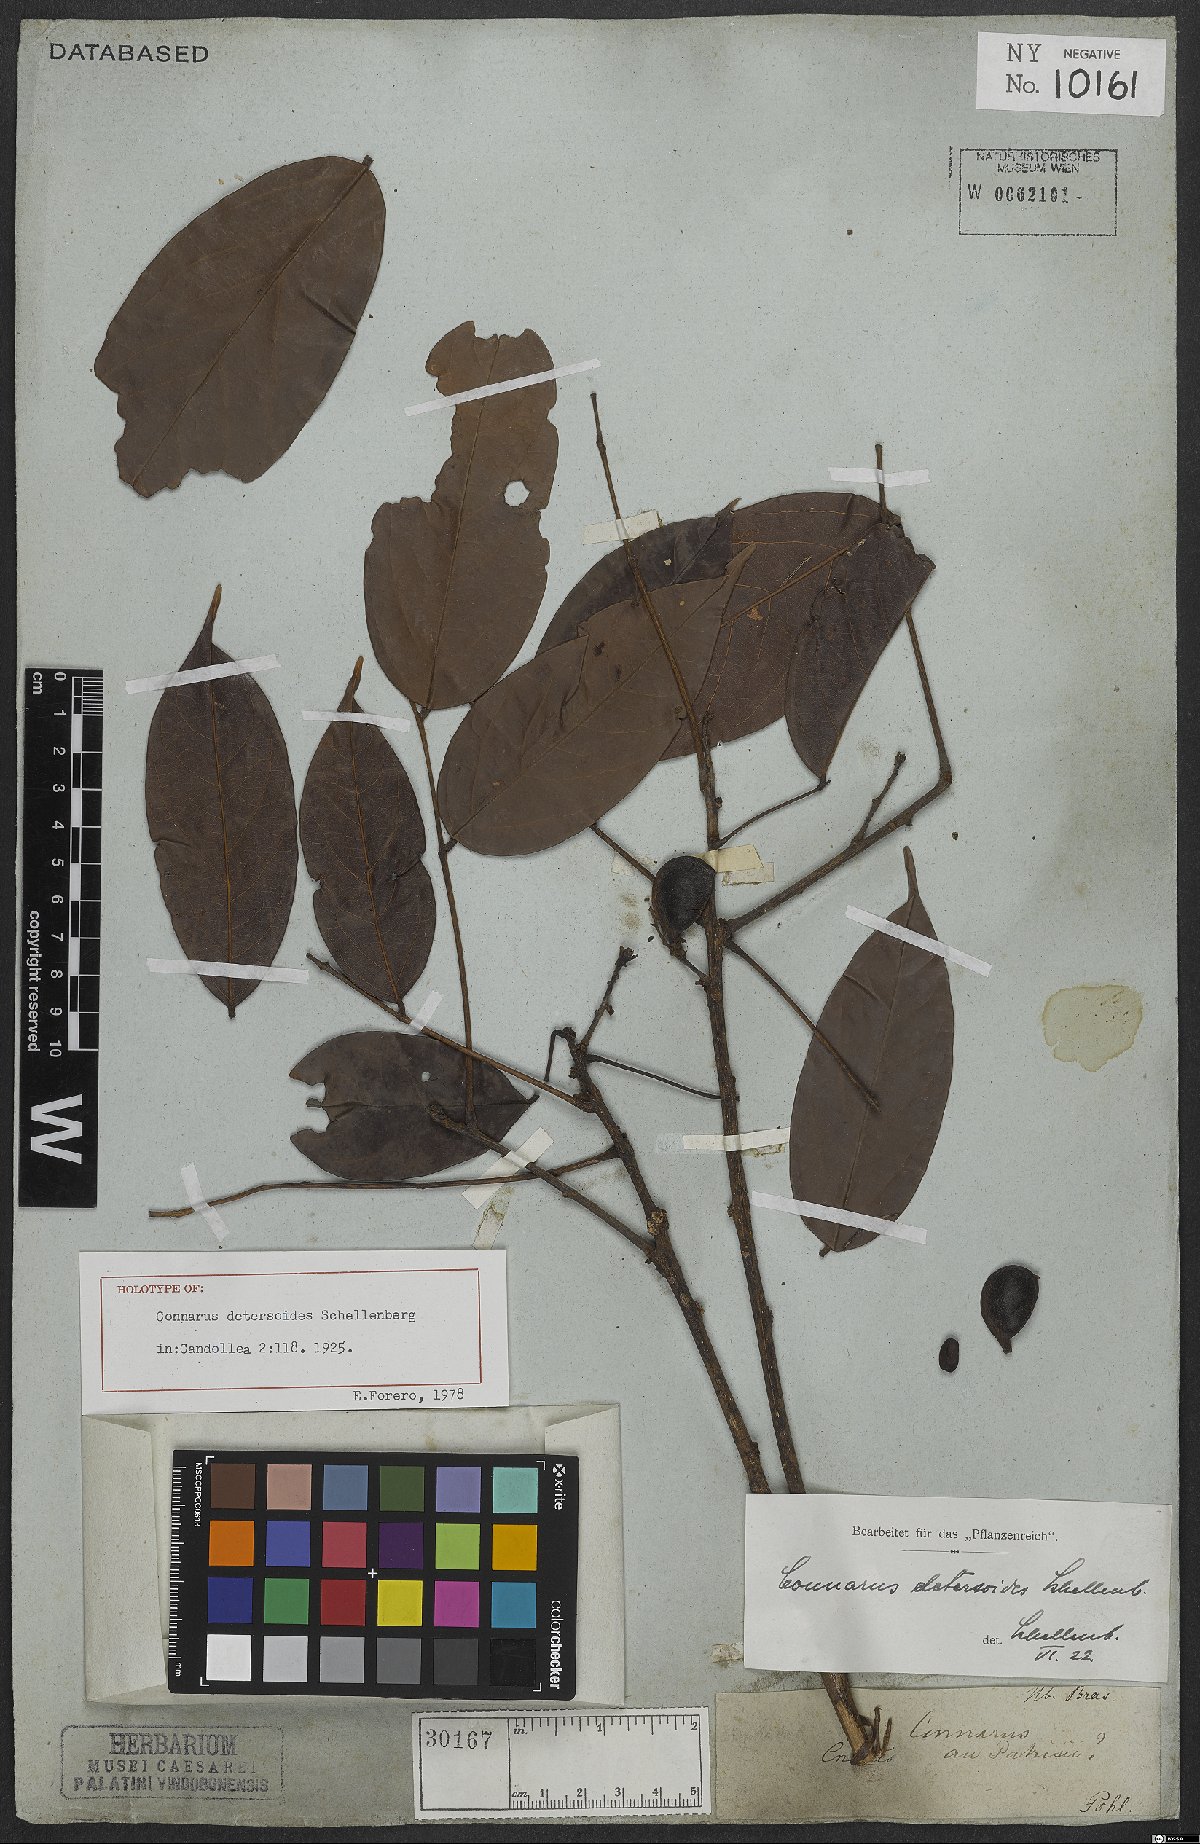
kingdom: Plantae
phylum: Tracheophyta
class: Magnoliopsida
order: Oxalidales
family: Connaraceae
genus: Connarus
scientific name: Connarus detersoides
